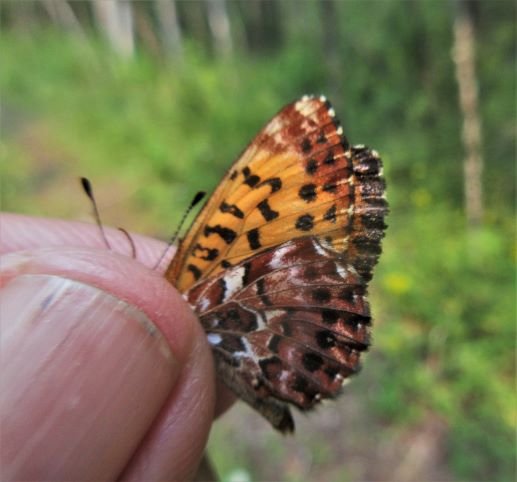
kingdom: Animalia
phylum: Arthropoda
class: Insecta
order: Lepidoptera
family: Nymphalidae
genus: Boloria
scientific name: Boloria chariclea
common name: Arctic Fritillary
